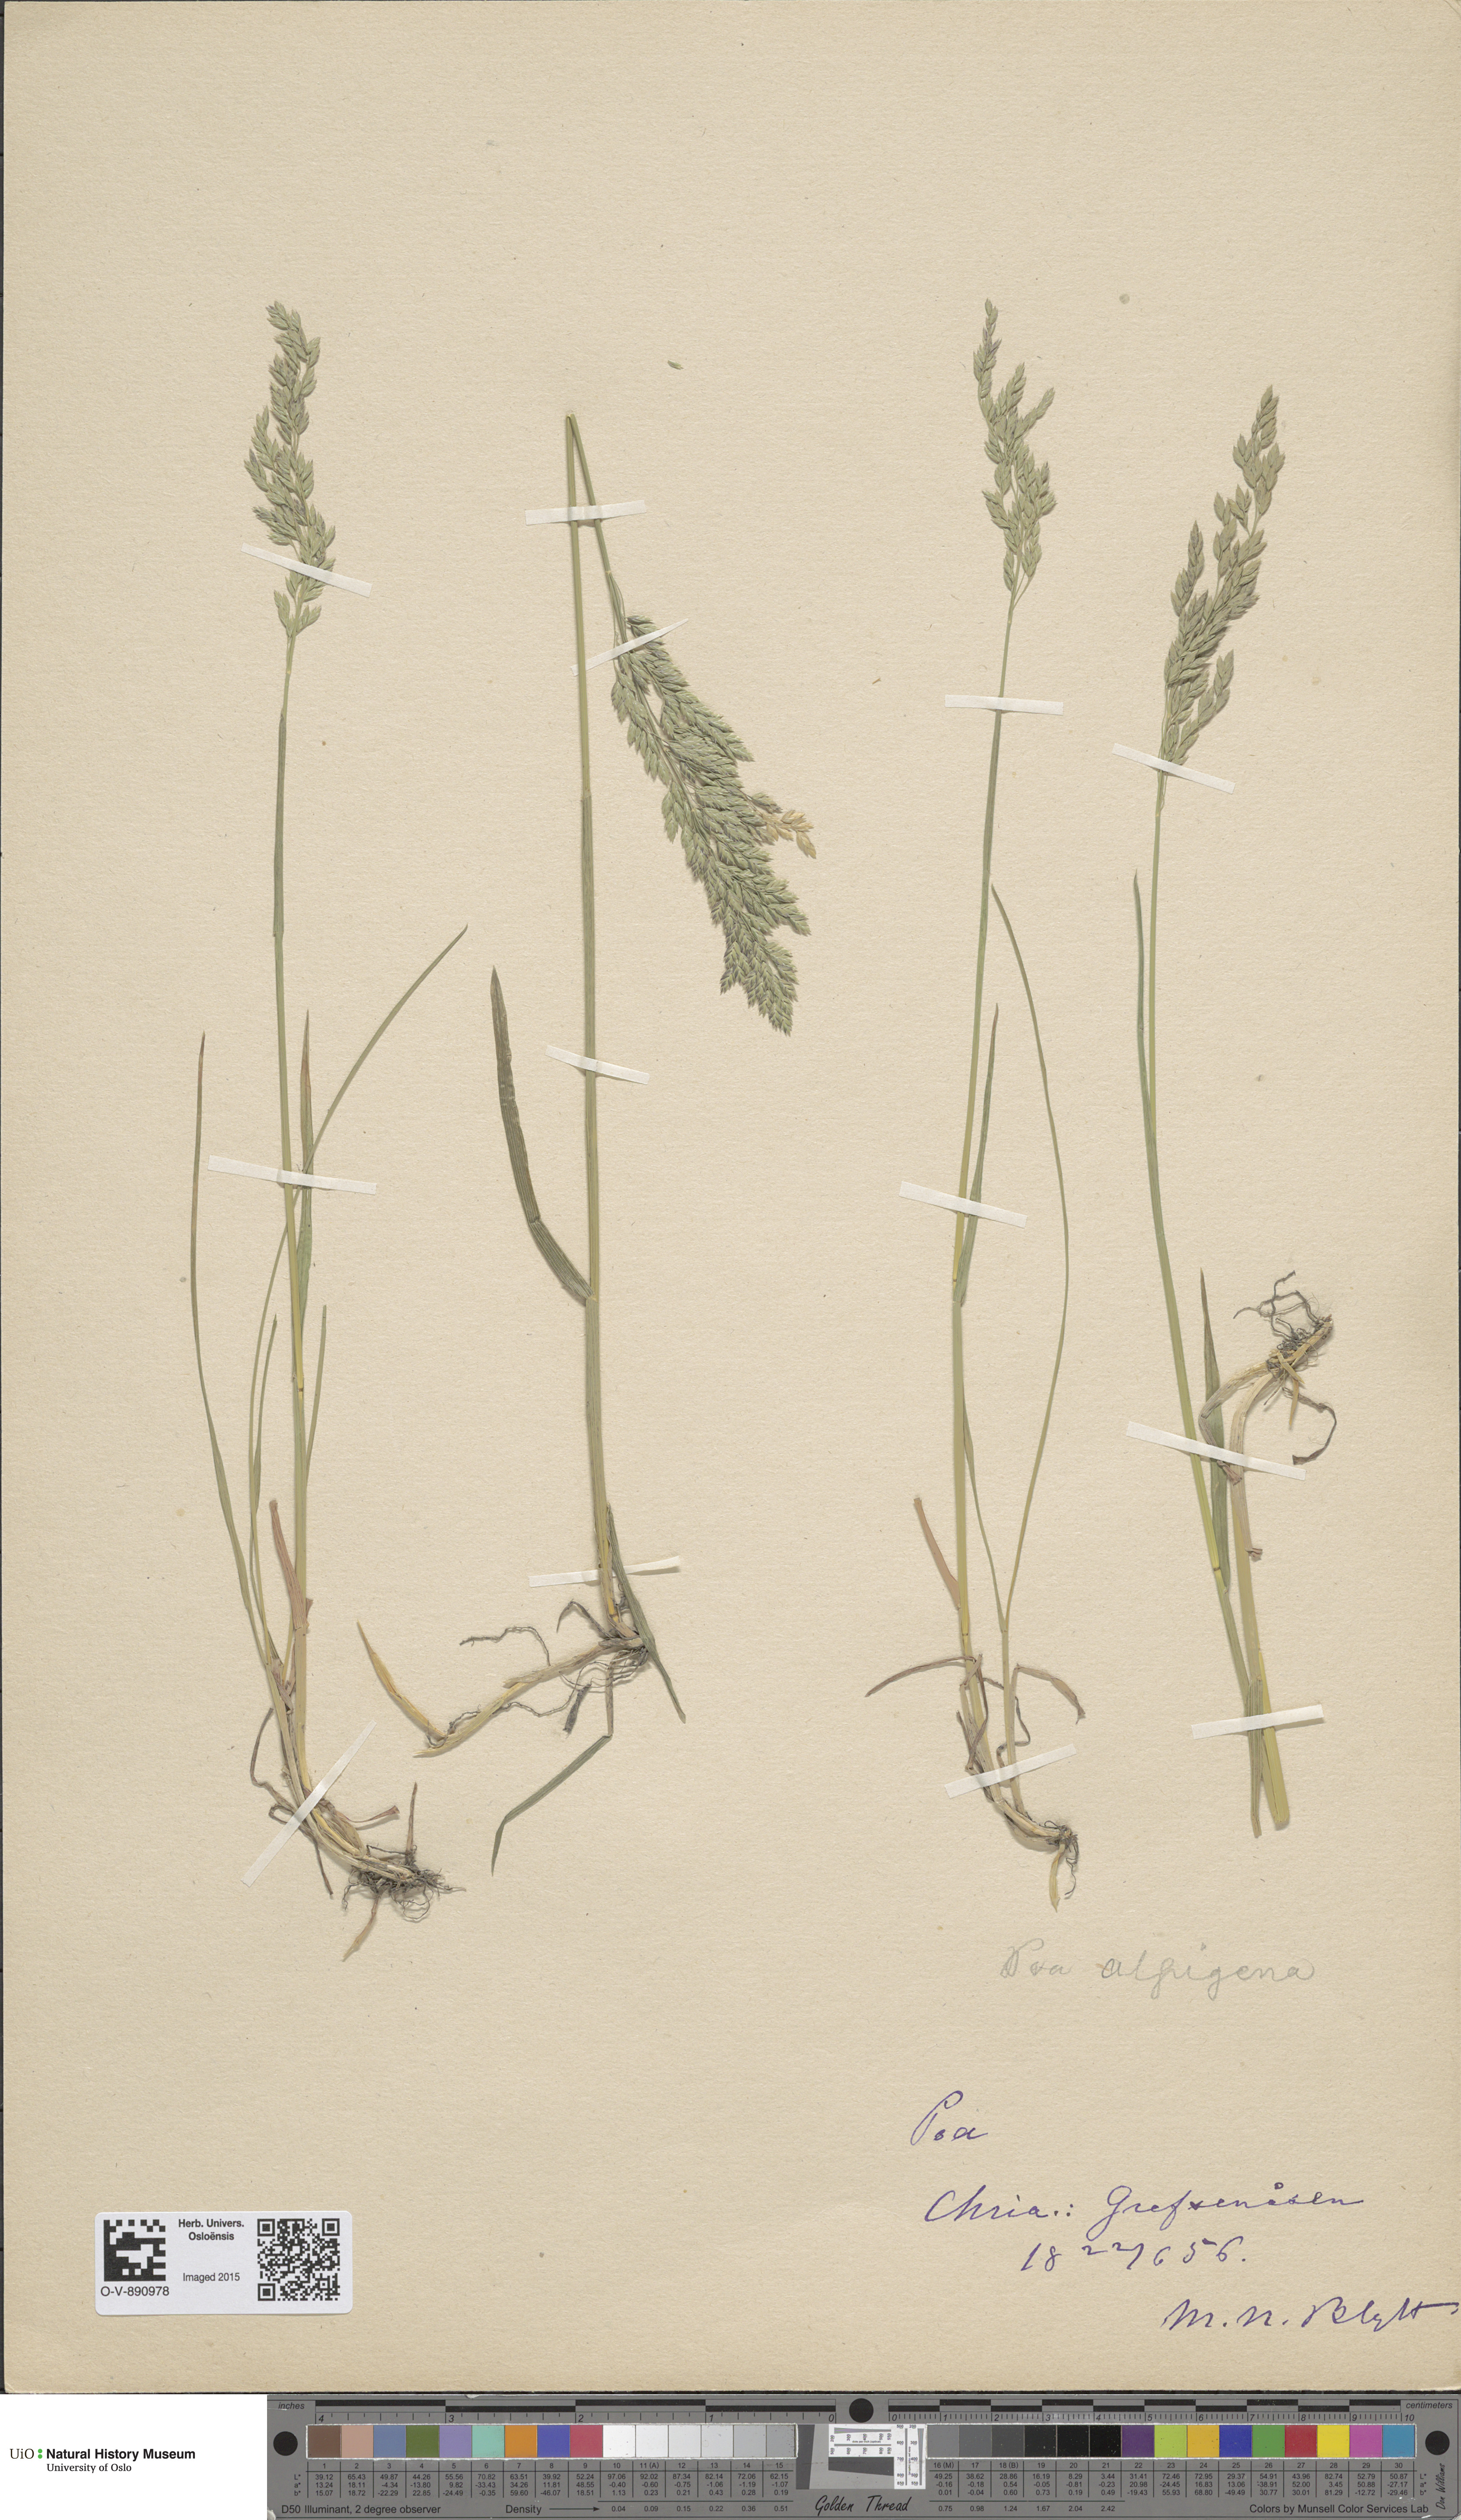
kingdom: Plantae
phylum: Tracheophyta
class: Liliopsida
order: Poales
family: Poaceae
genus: Poa
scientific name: Poa alpigena
